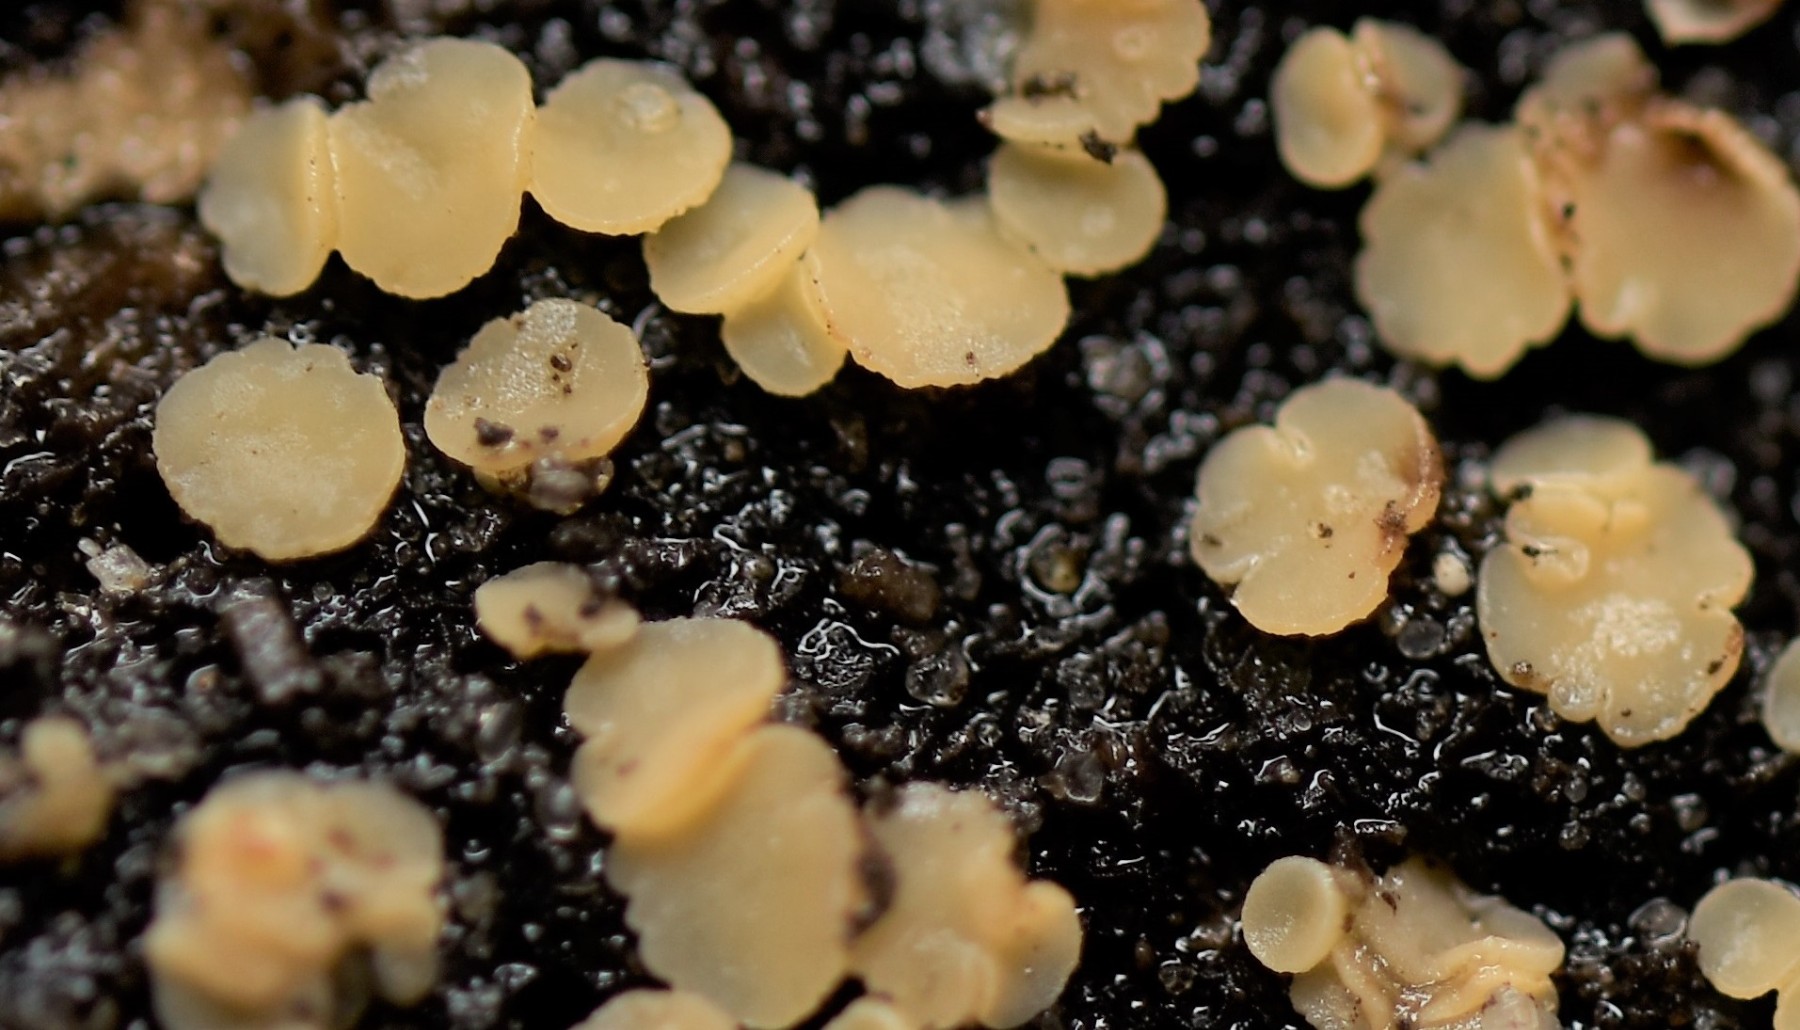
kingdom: Fungi
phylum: Ascomycota
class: Leotiomycetes
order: Helotiales
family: Helotiaceae
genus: Bispora
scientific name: Bispora pallescens
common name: måtte-snitskive
